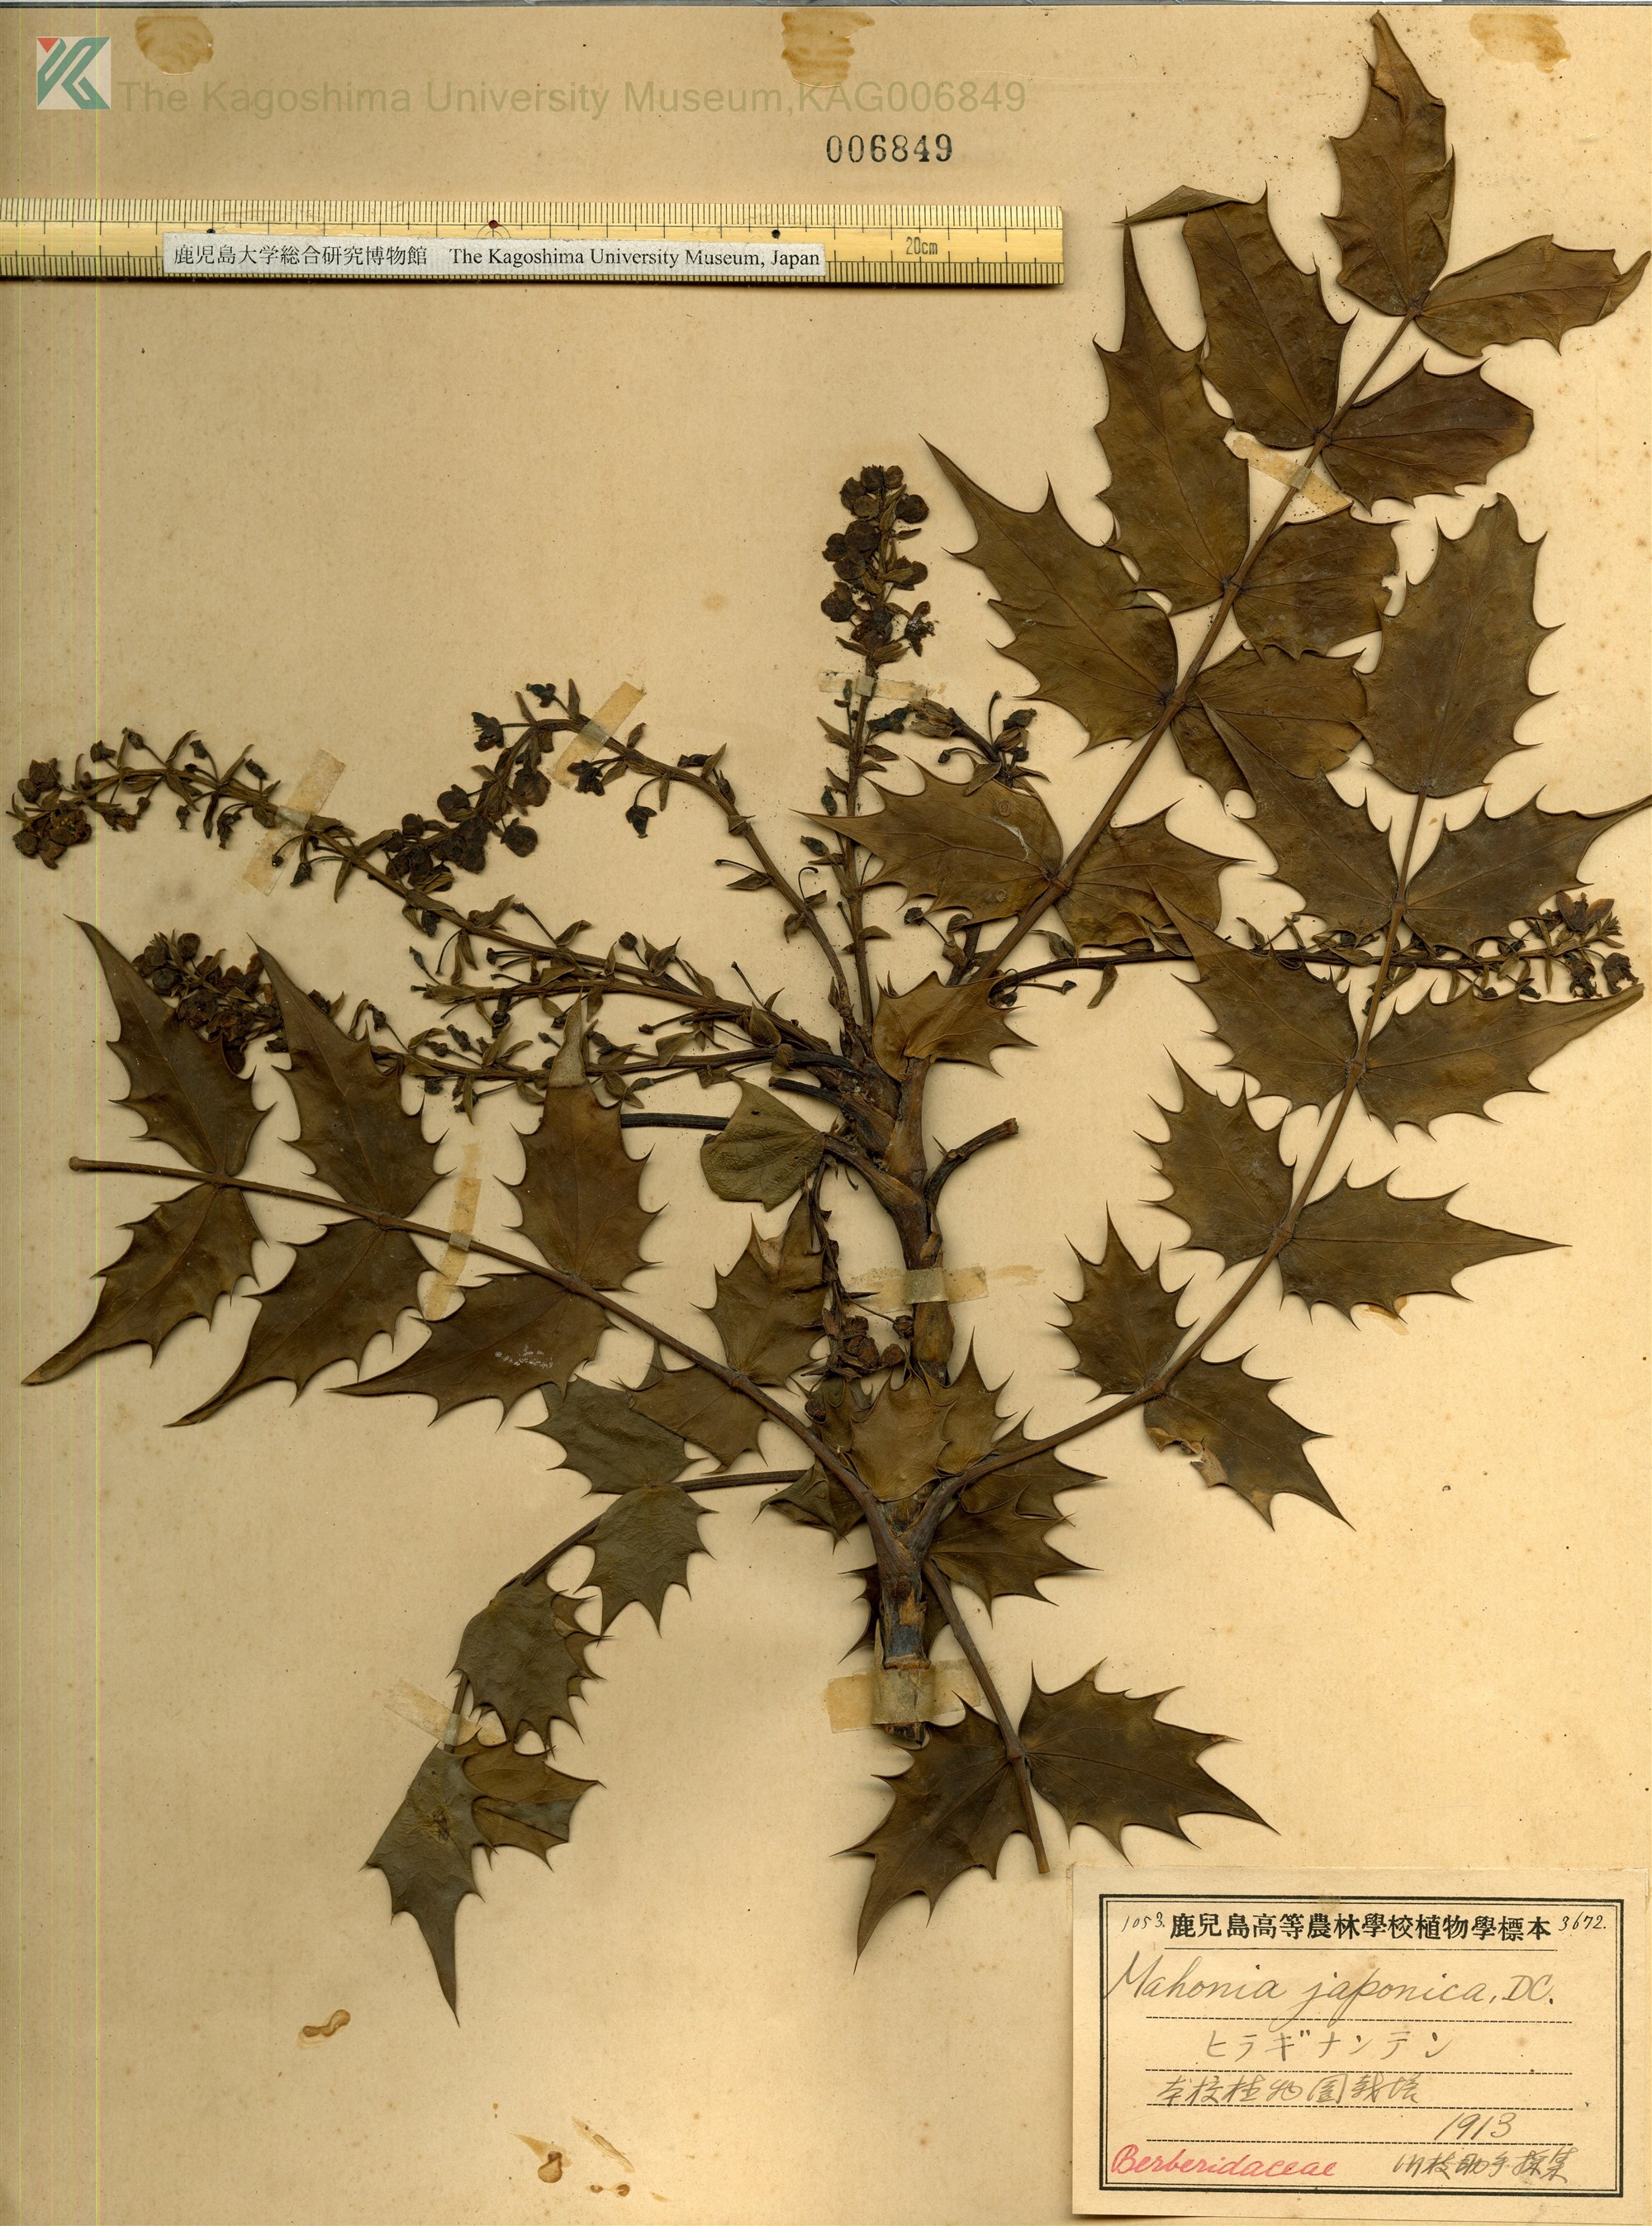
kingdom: Plantae
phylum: Tracheophyta
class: Magnoliopsida
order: Ranunculales
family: Berberidaceae
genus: Mahonia
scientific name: Mahonia japonica
